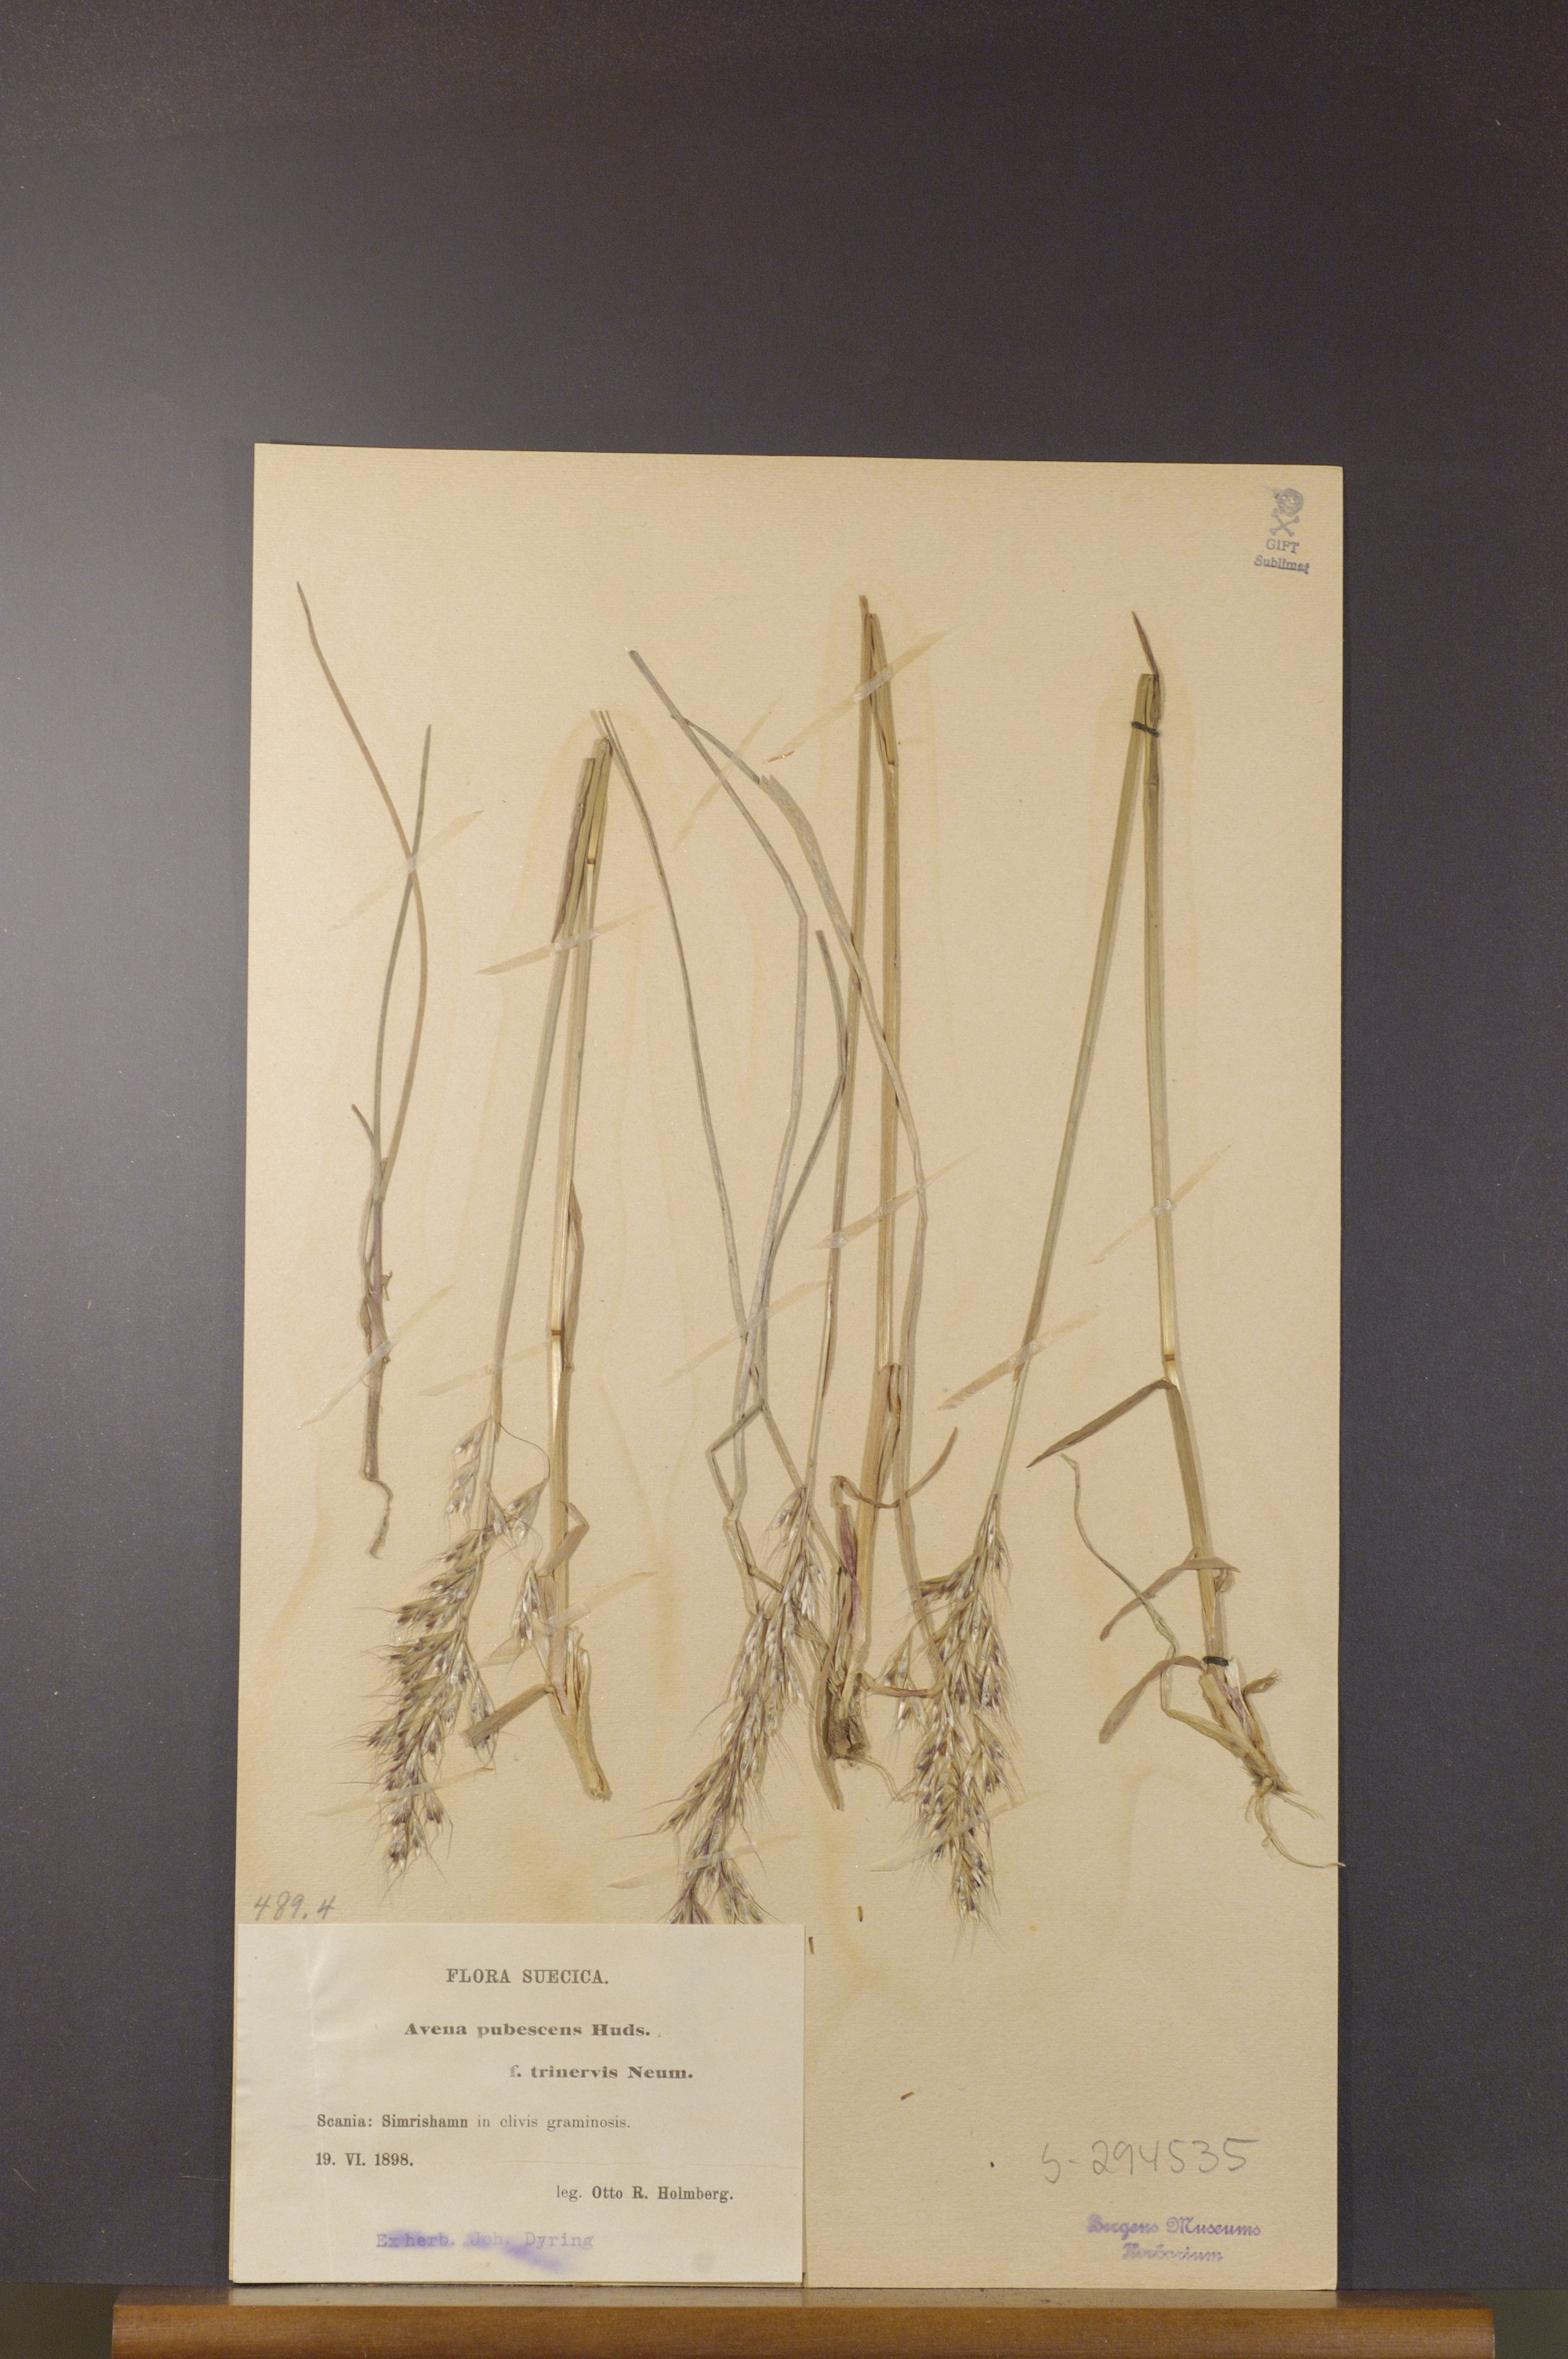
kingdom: Plantae
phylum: Tracheophyta
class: Liliopsida
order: Poales
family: Poaceae
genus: Avenula
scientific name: Avenula pubescens
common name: Downy alpine oatgrass
